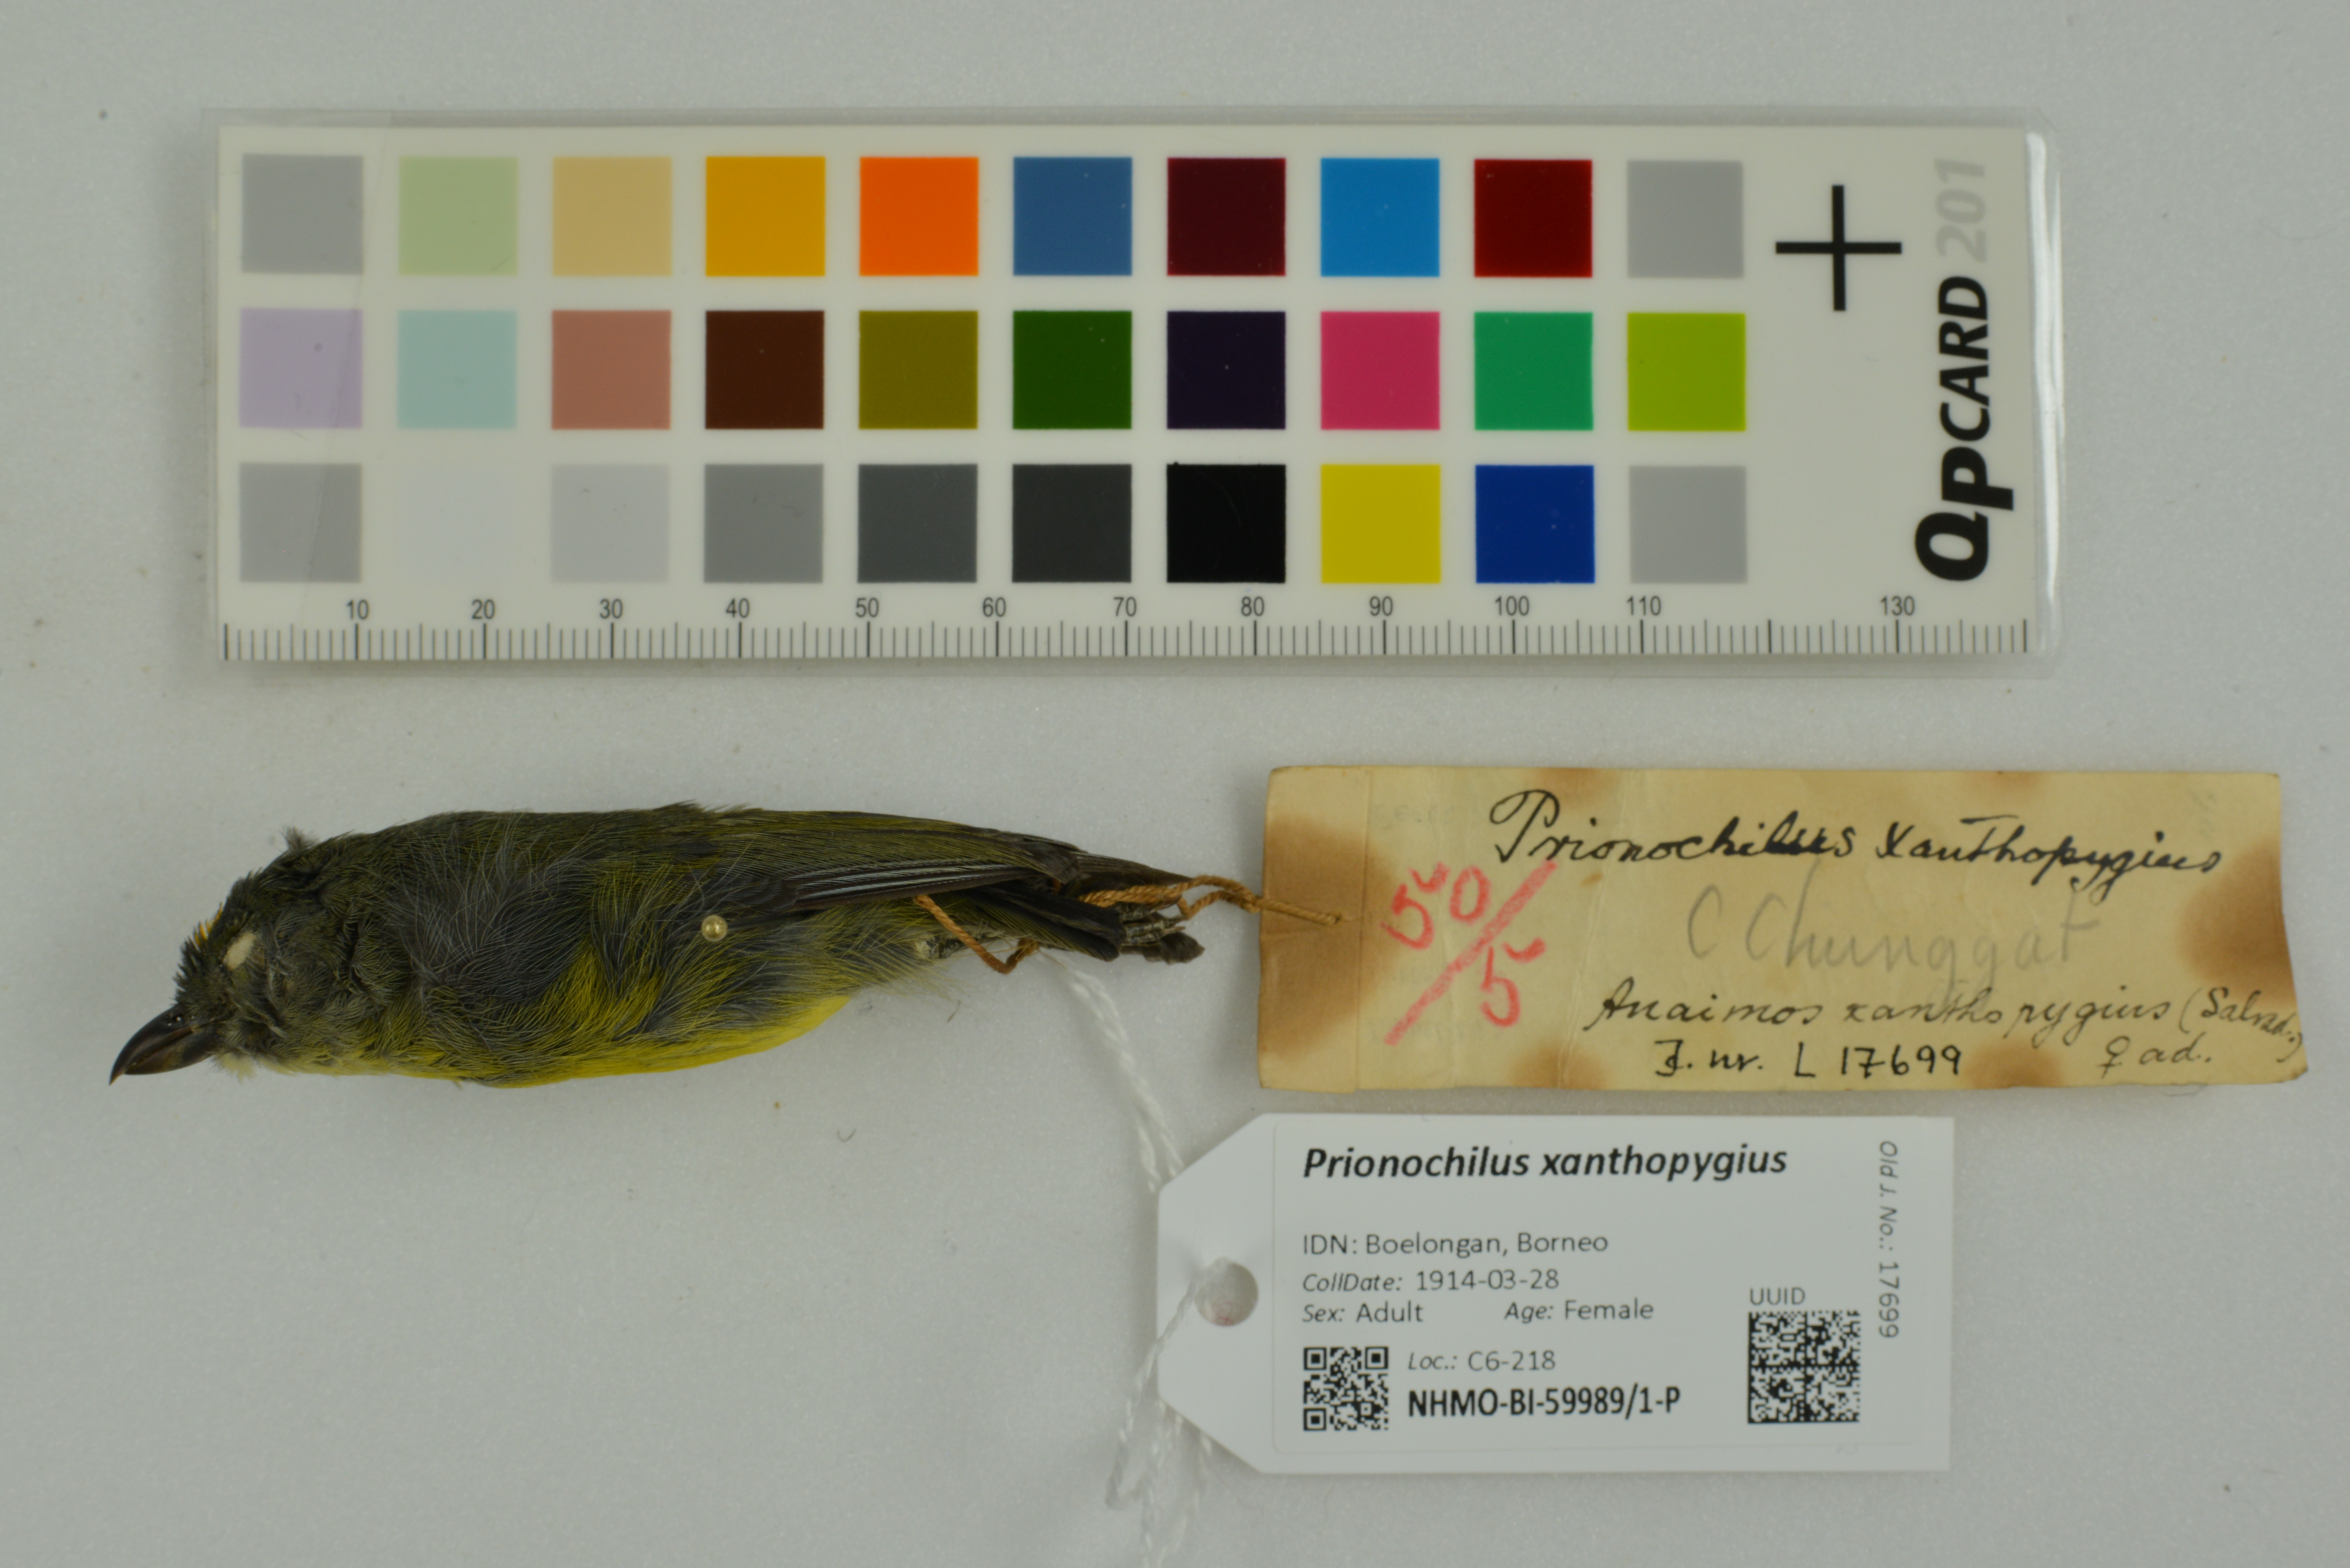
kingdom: Animalia
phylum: Chordata
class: Aves
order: Passeriformes
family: Dicaeidae
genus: Prionochilus
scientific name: Prionochilus xanthopygius
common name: Yellow-rumped flowerpecker
